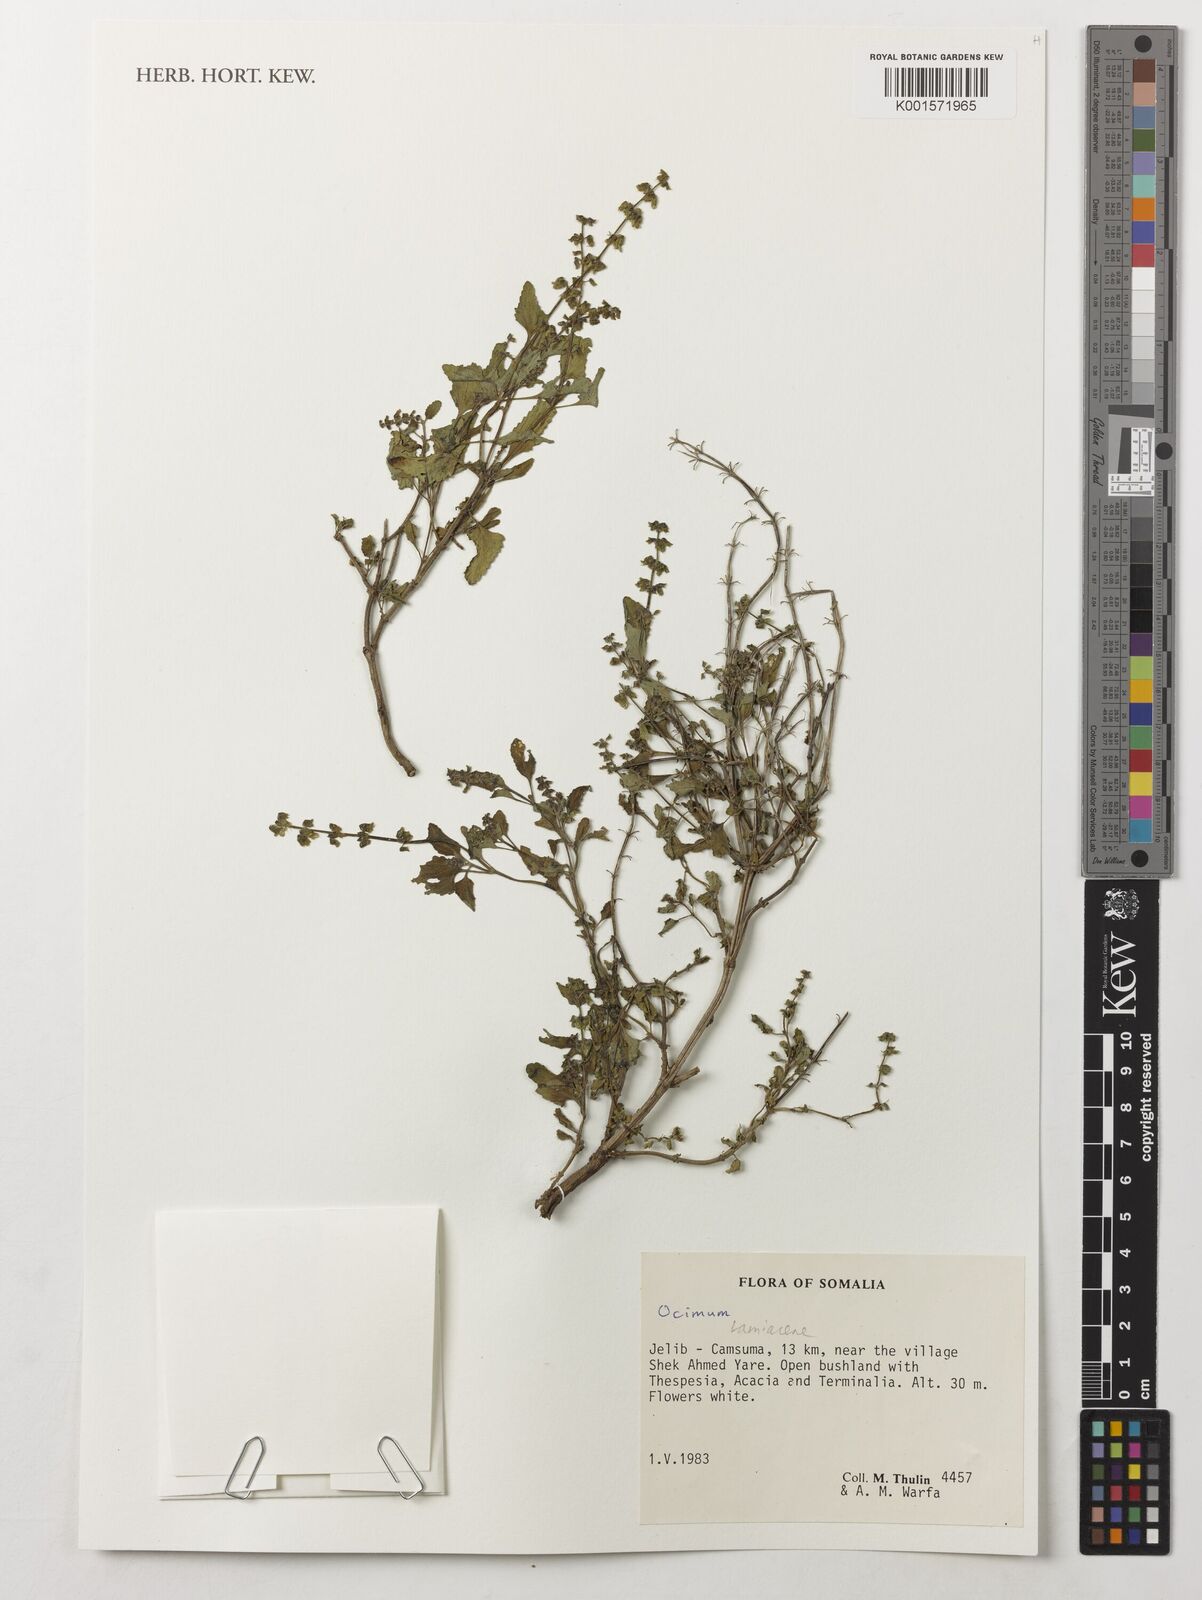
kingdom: Plantae
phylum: Tracheophyta
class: Magnoliopsida
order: Lamiales
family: Lamiaceae
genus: Ocimum
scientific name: Ocimum
